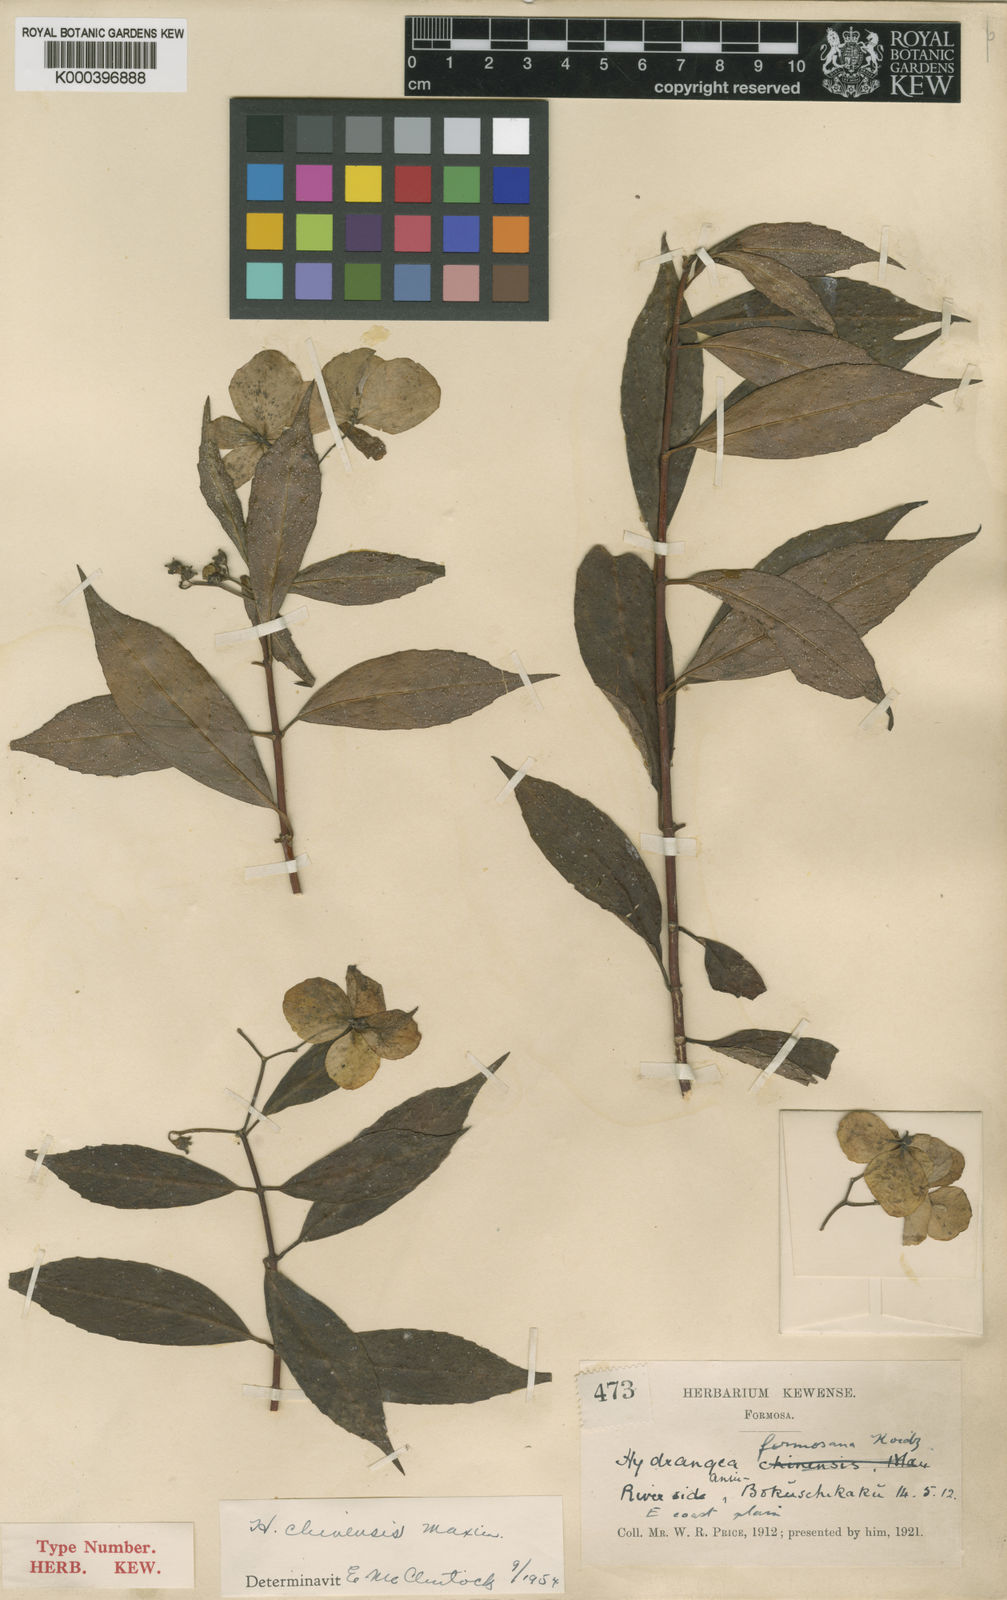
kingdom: Plantae
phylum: Tracheophyta
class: Magnoliopsida
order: Cornales
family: Hydrangeaceae
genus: Hydrangea
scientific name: Hydrangea chinensis
